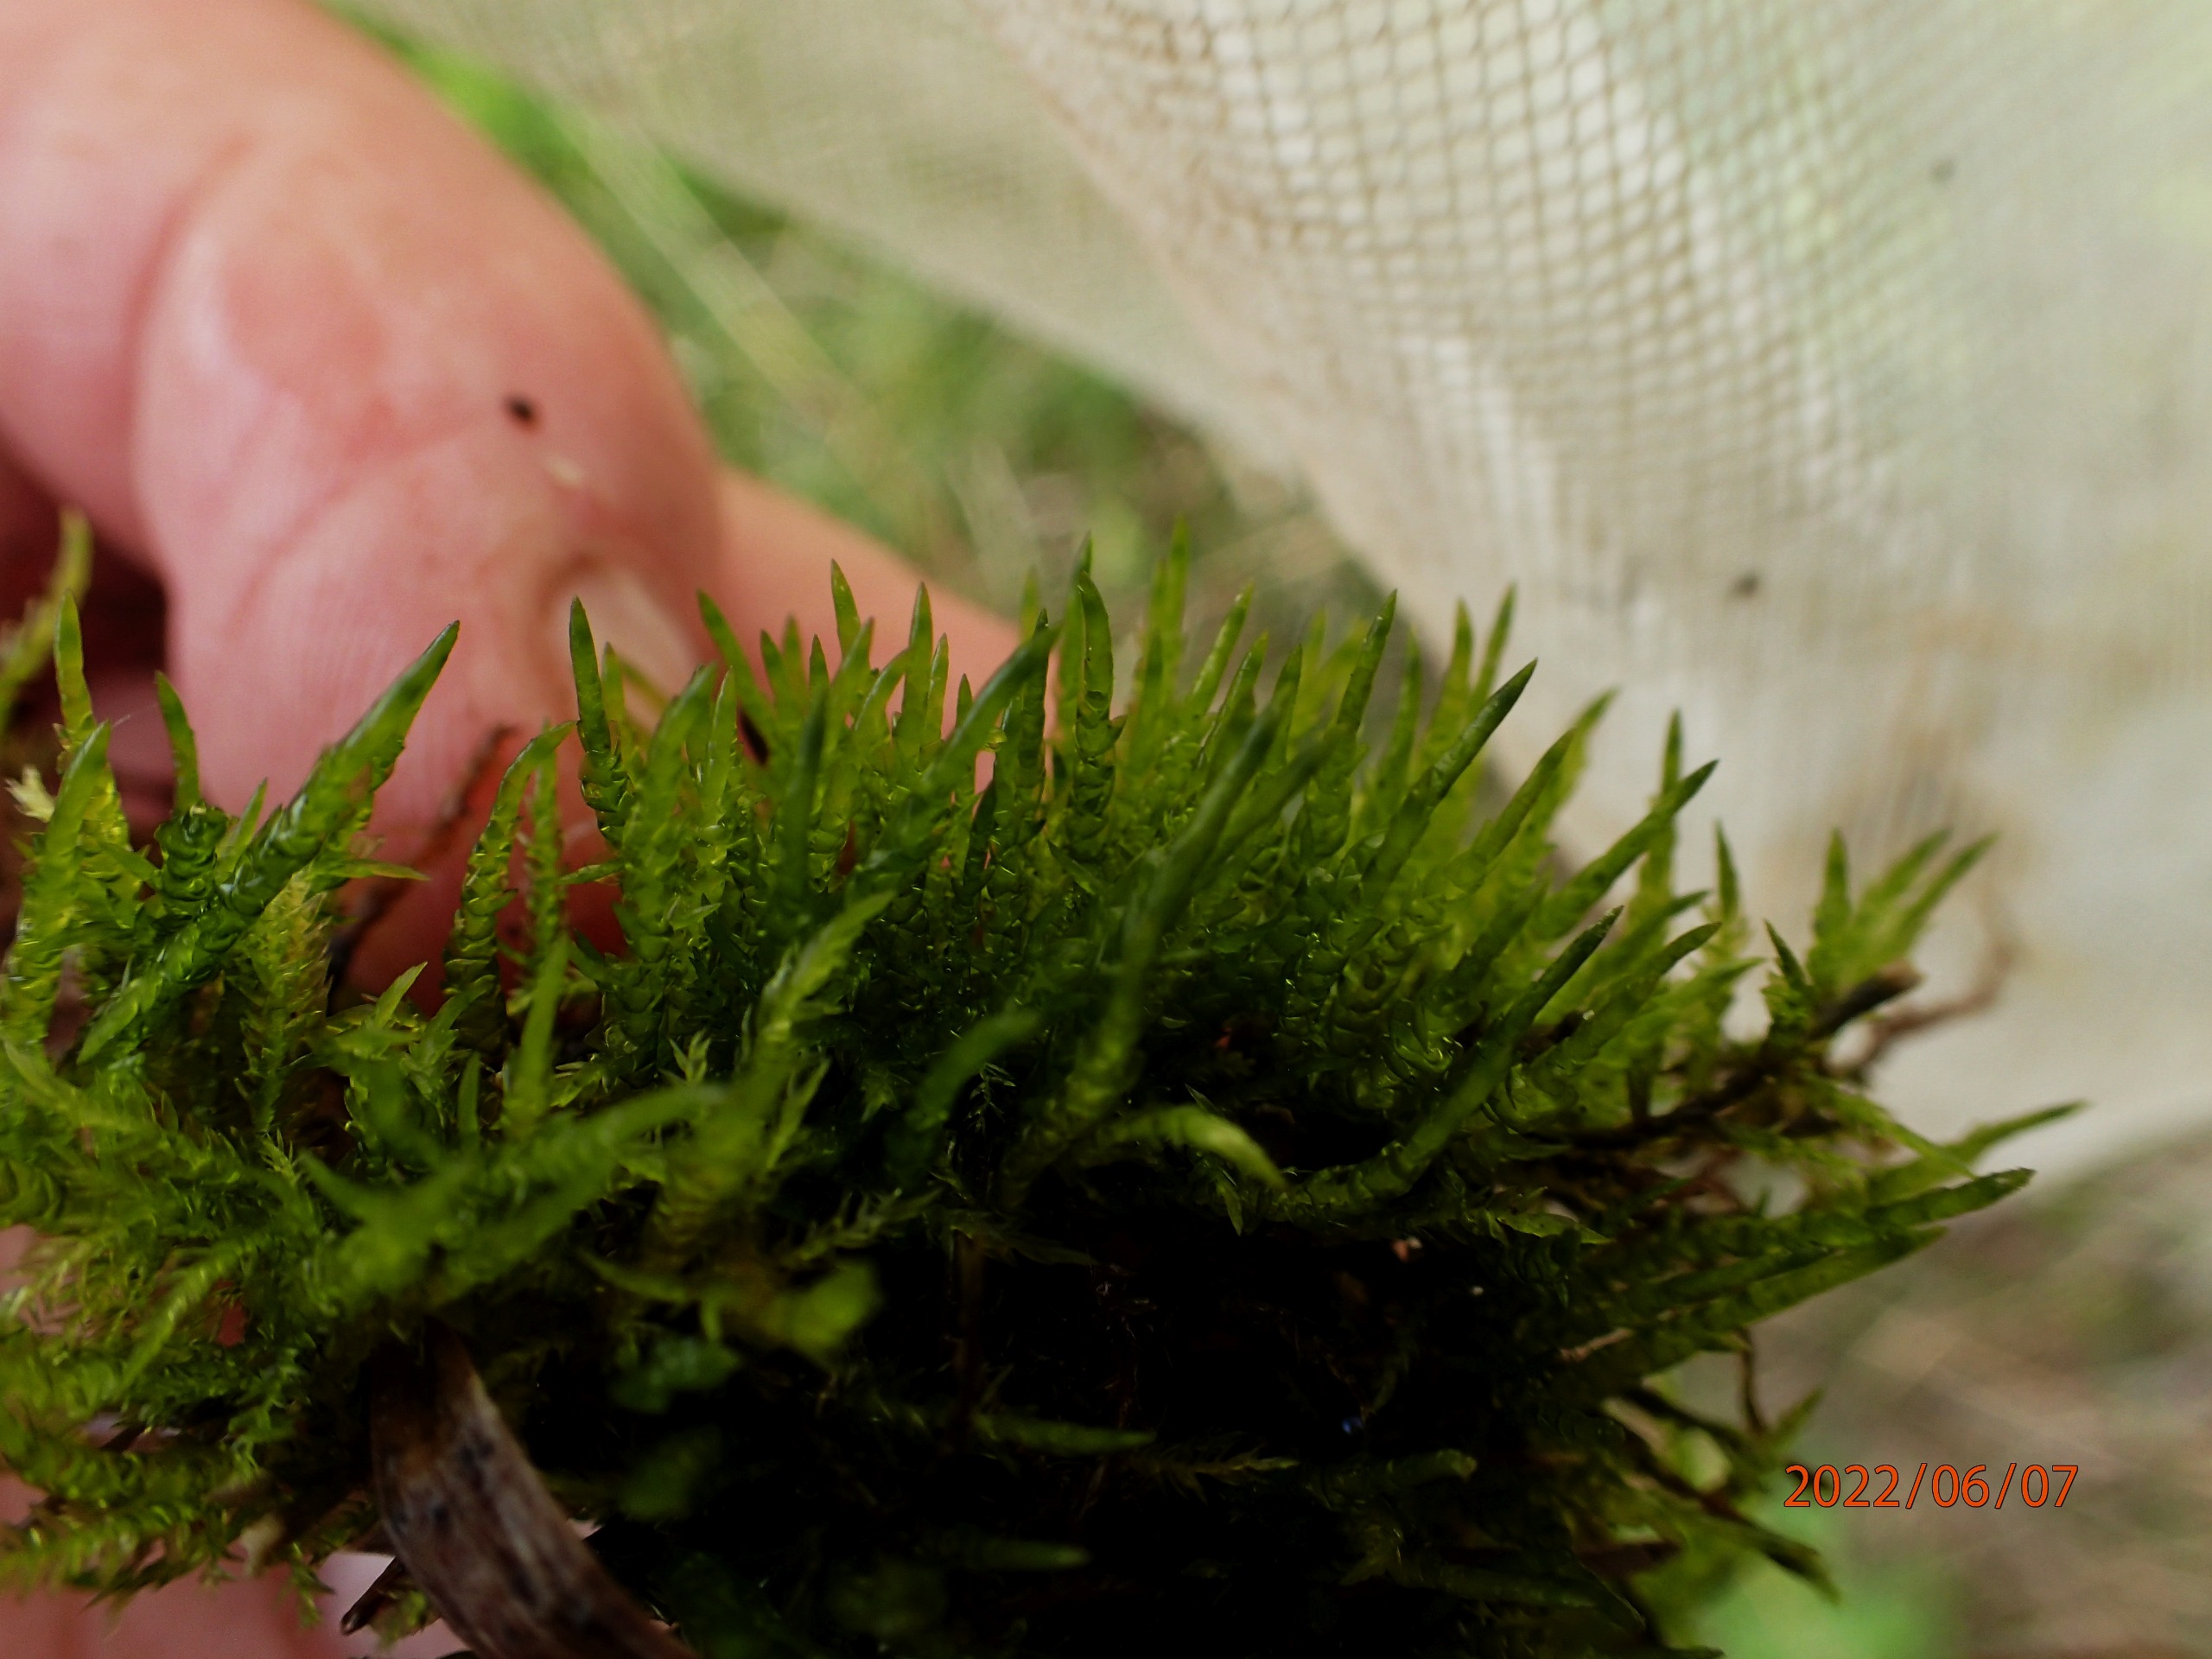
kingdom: Plantae
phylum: Bryophyta
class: Bryopsida
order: Hypnales
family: Pylaisiaceae
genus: Calliergonella
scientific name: Calliergonella cuspidata
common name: Spids spydmos
